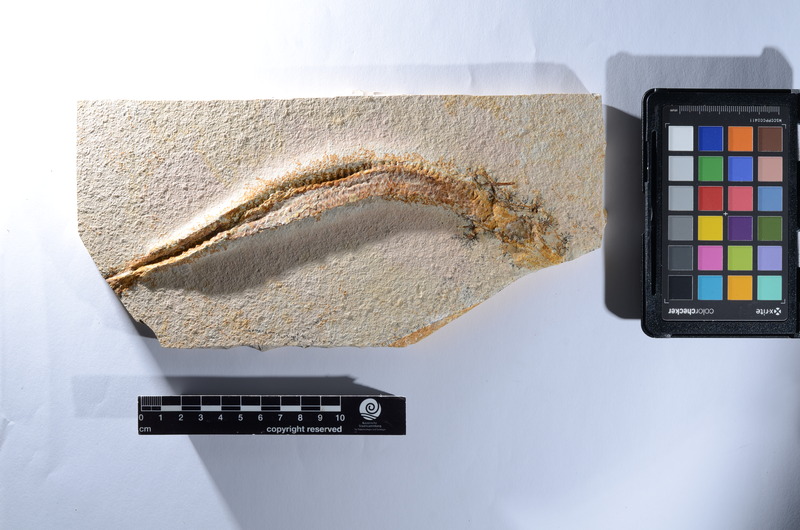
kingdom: Animalia
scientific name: Animalia
